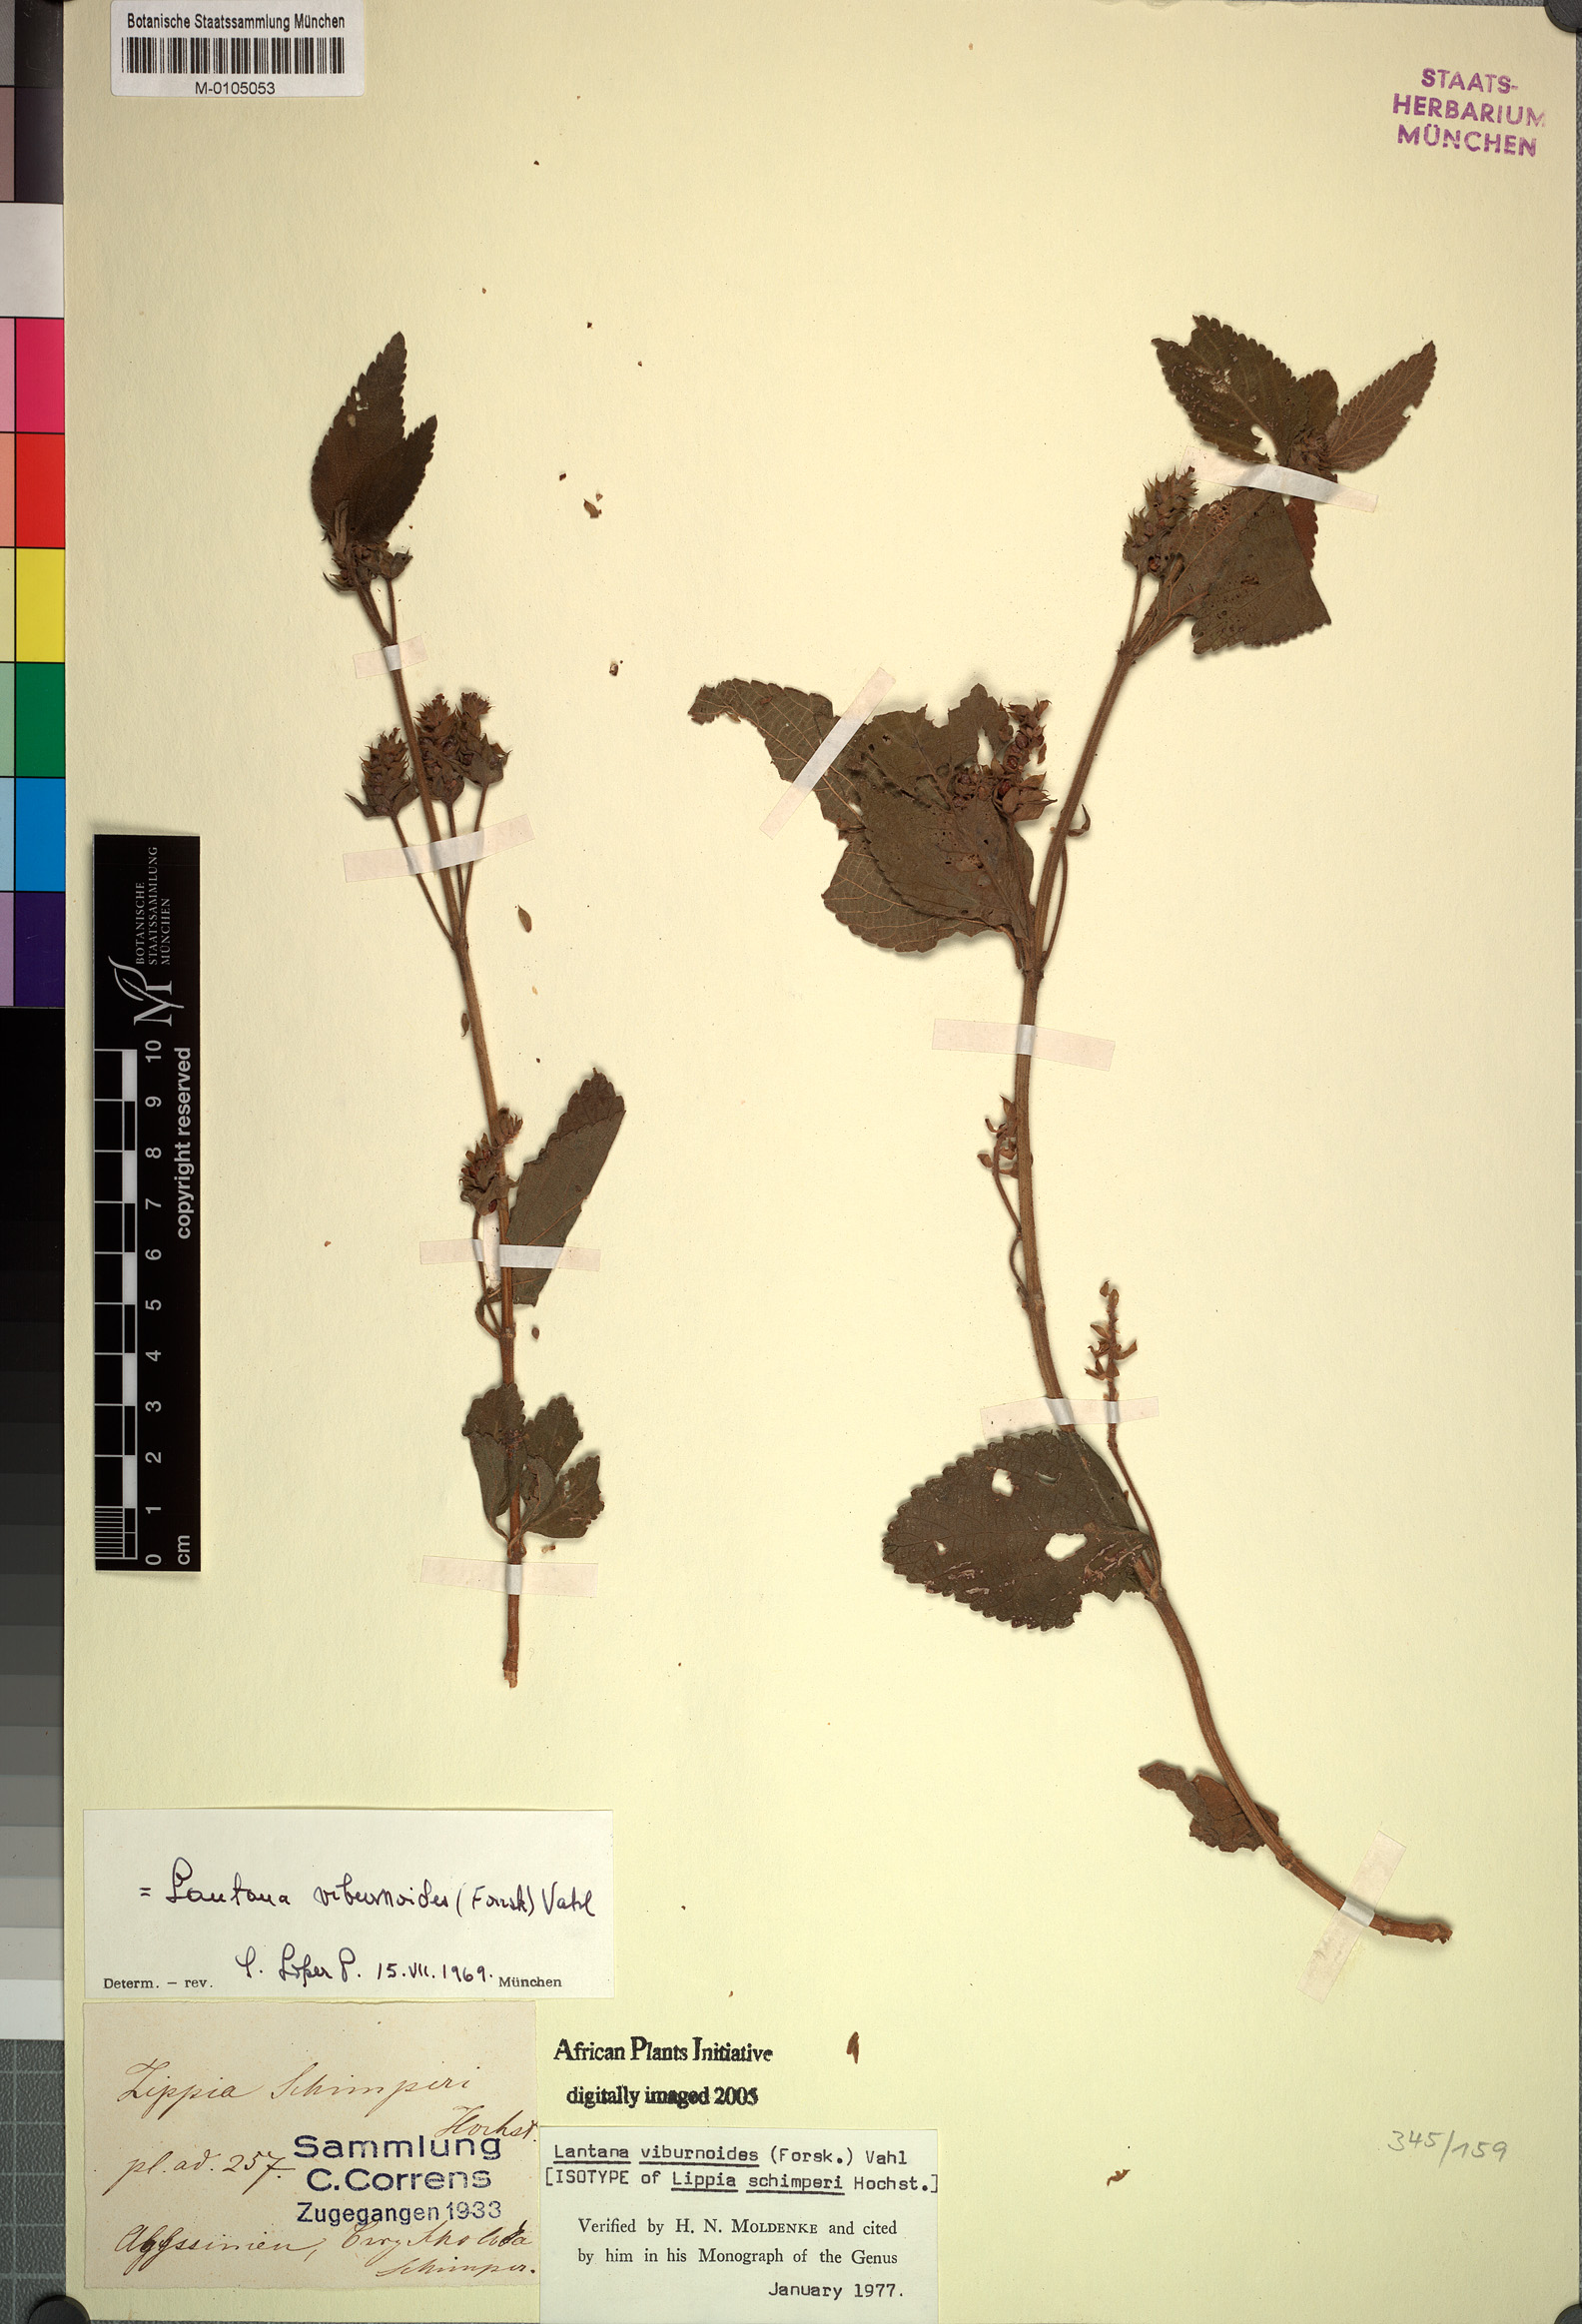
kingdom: Plantae
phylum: Tracheophyta
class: Magnoliopsida
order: Lamiales
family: Verbenaceae
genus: Lantana
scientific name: Lantana viburnoides
